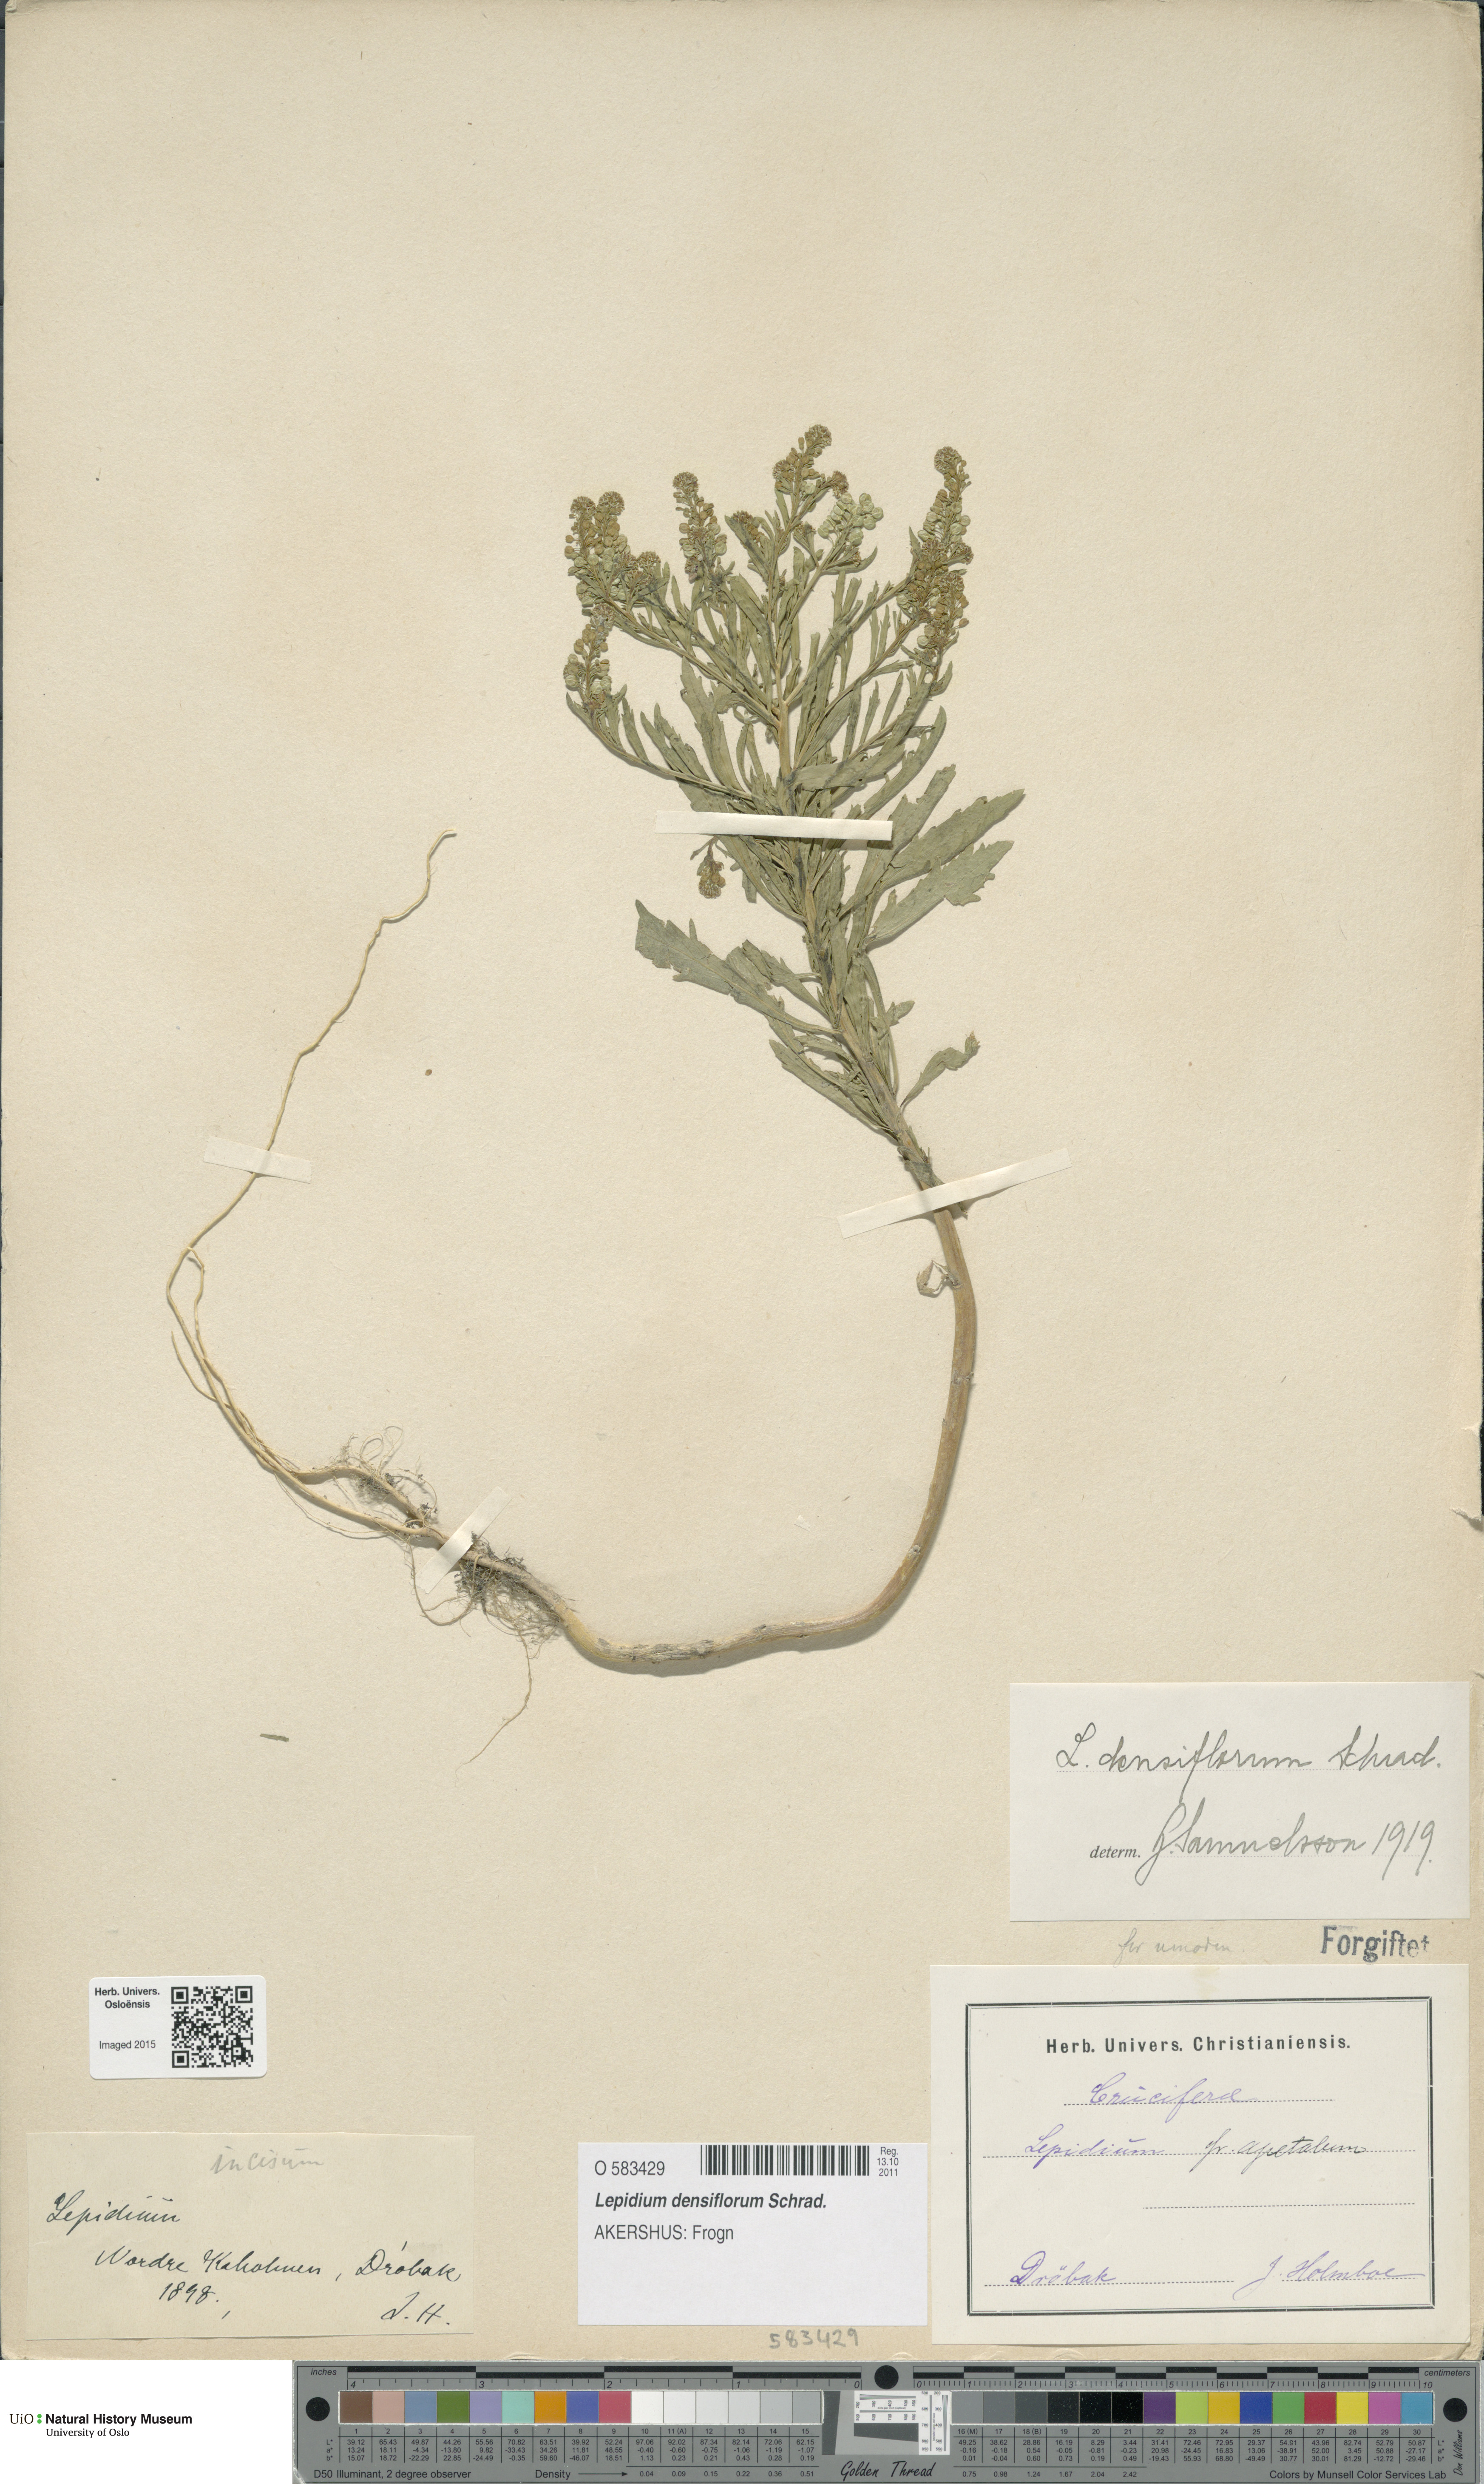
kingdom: Plantae
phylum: Tracheophyta
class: Magnoliopsida
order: Brassicales
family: Brassicaceae
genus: Lepidium
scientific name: Lepidium densiflorum
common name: Miner's pepperwort
